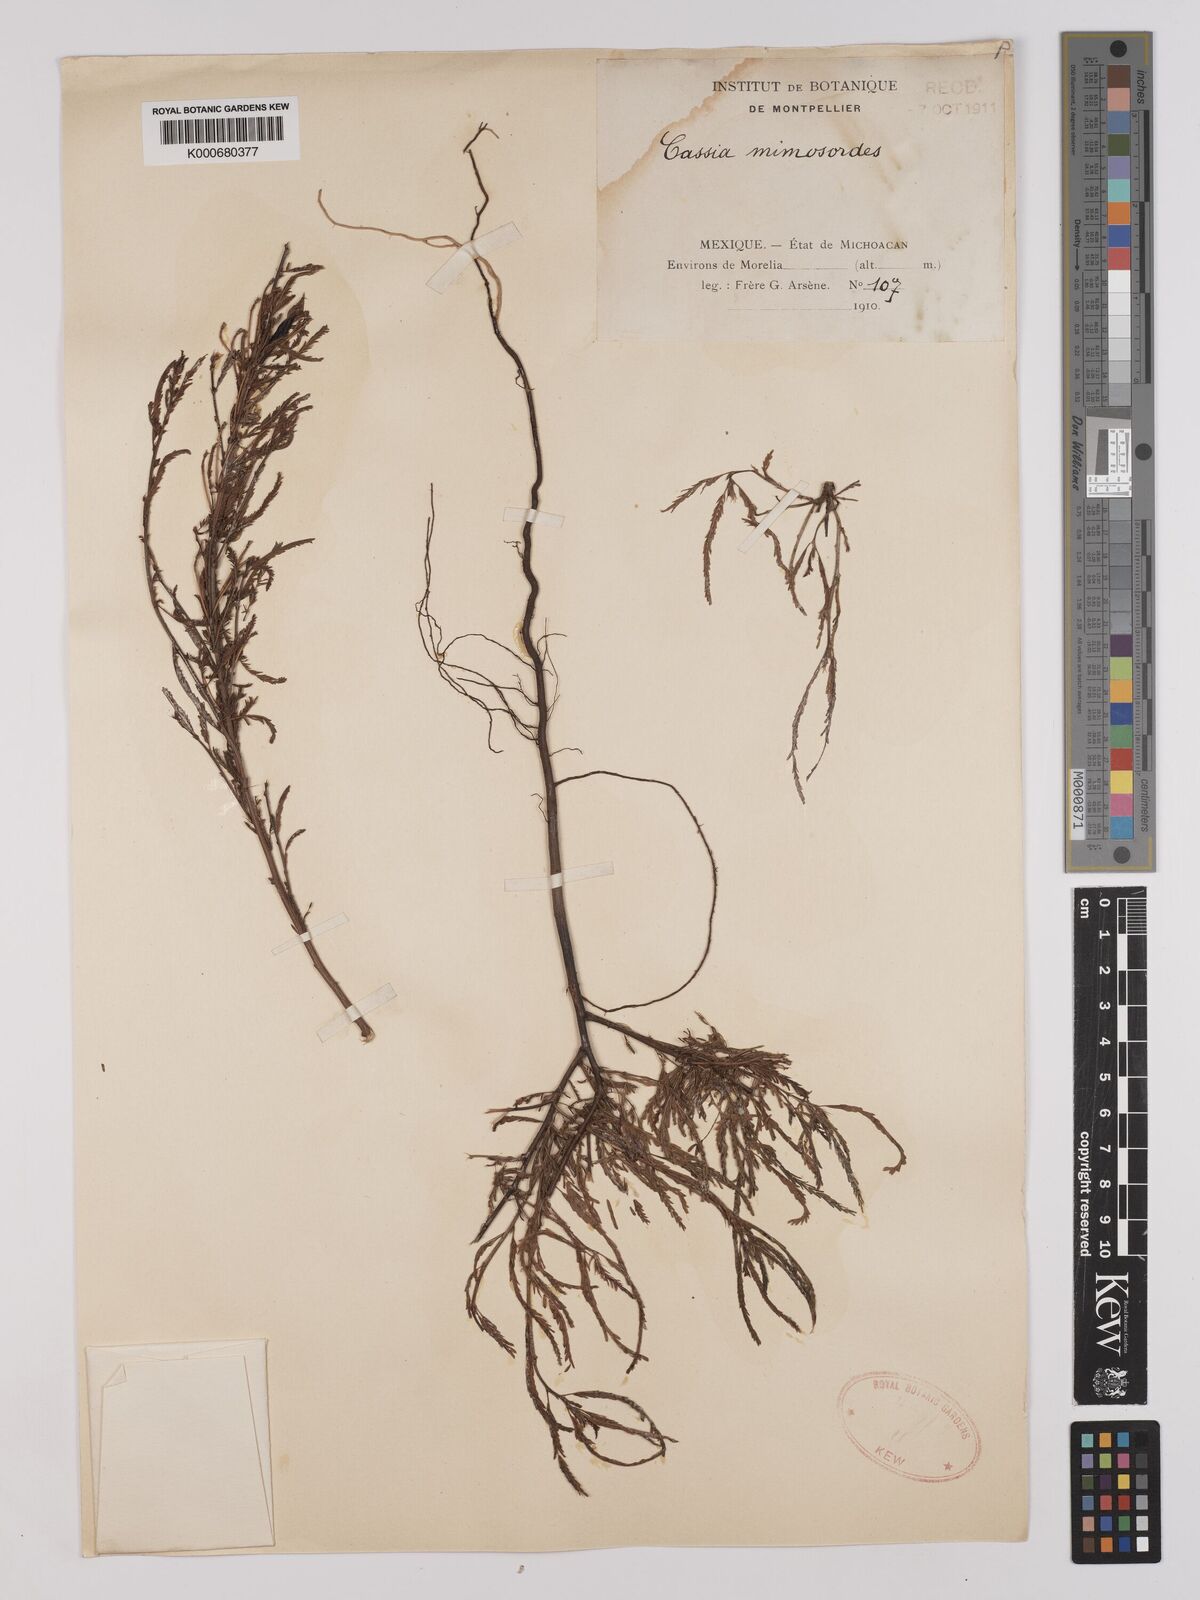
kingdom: Plantae
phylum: Tracheophyta
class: Magnoliopsida
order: Fabales
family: Fabaceae
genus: Chamaecrista
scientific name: Chamaecrista nictitans
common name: Sensitive cassia
